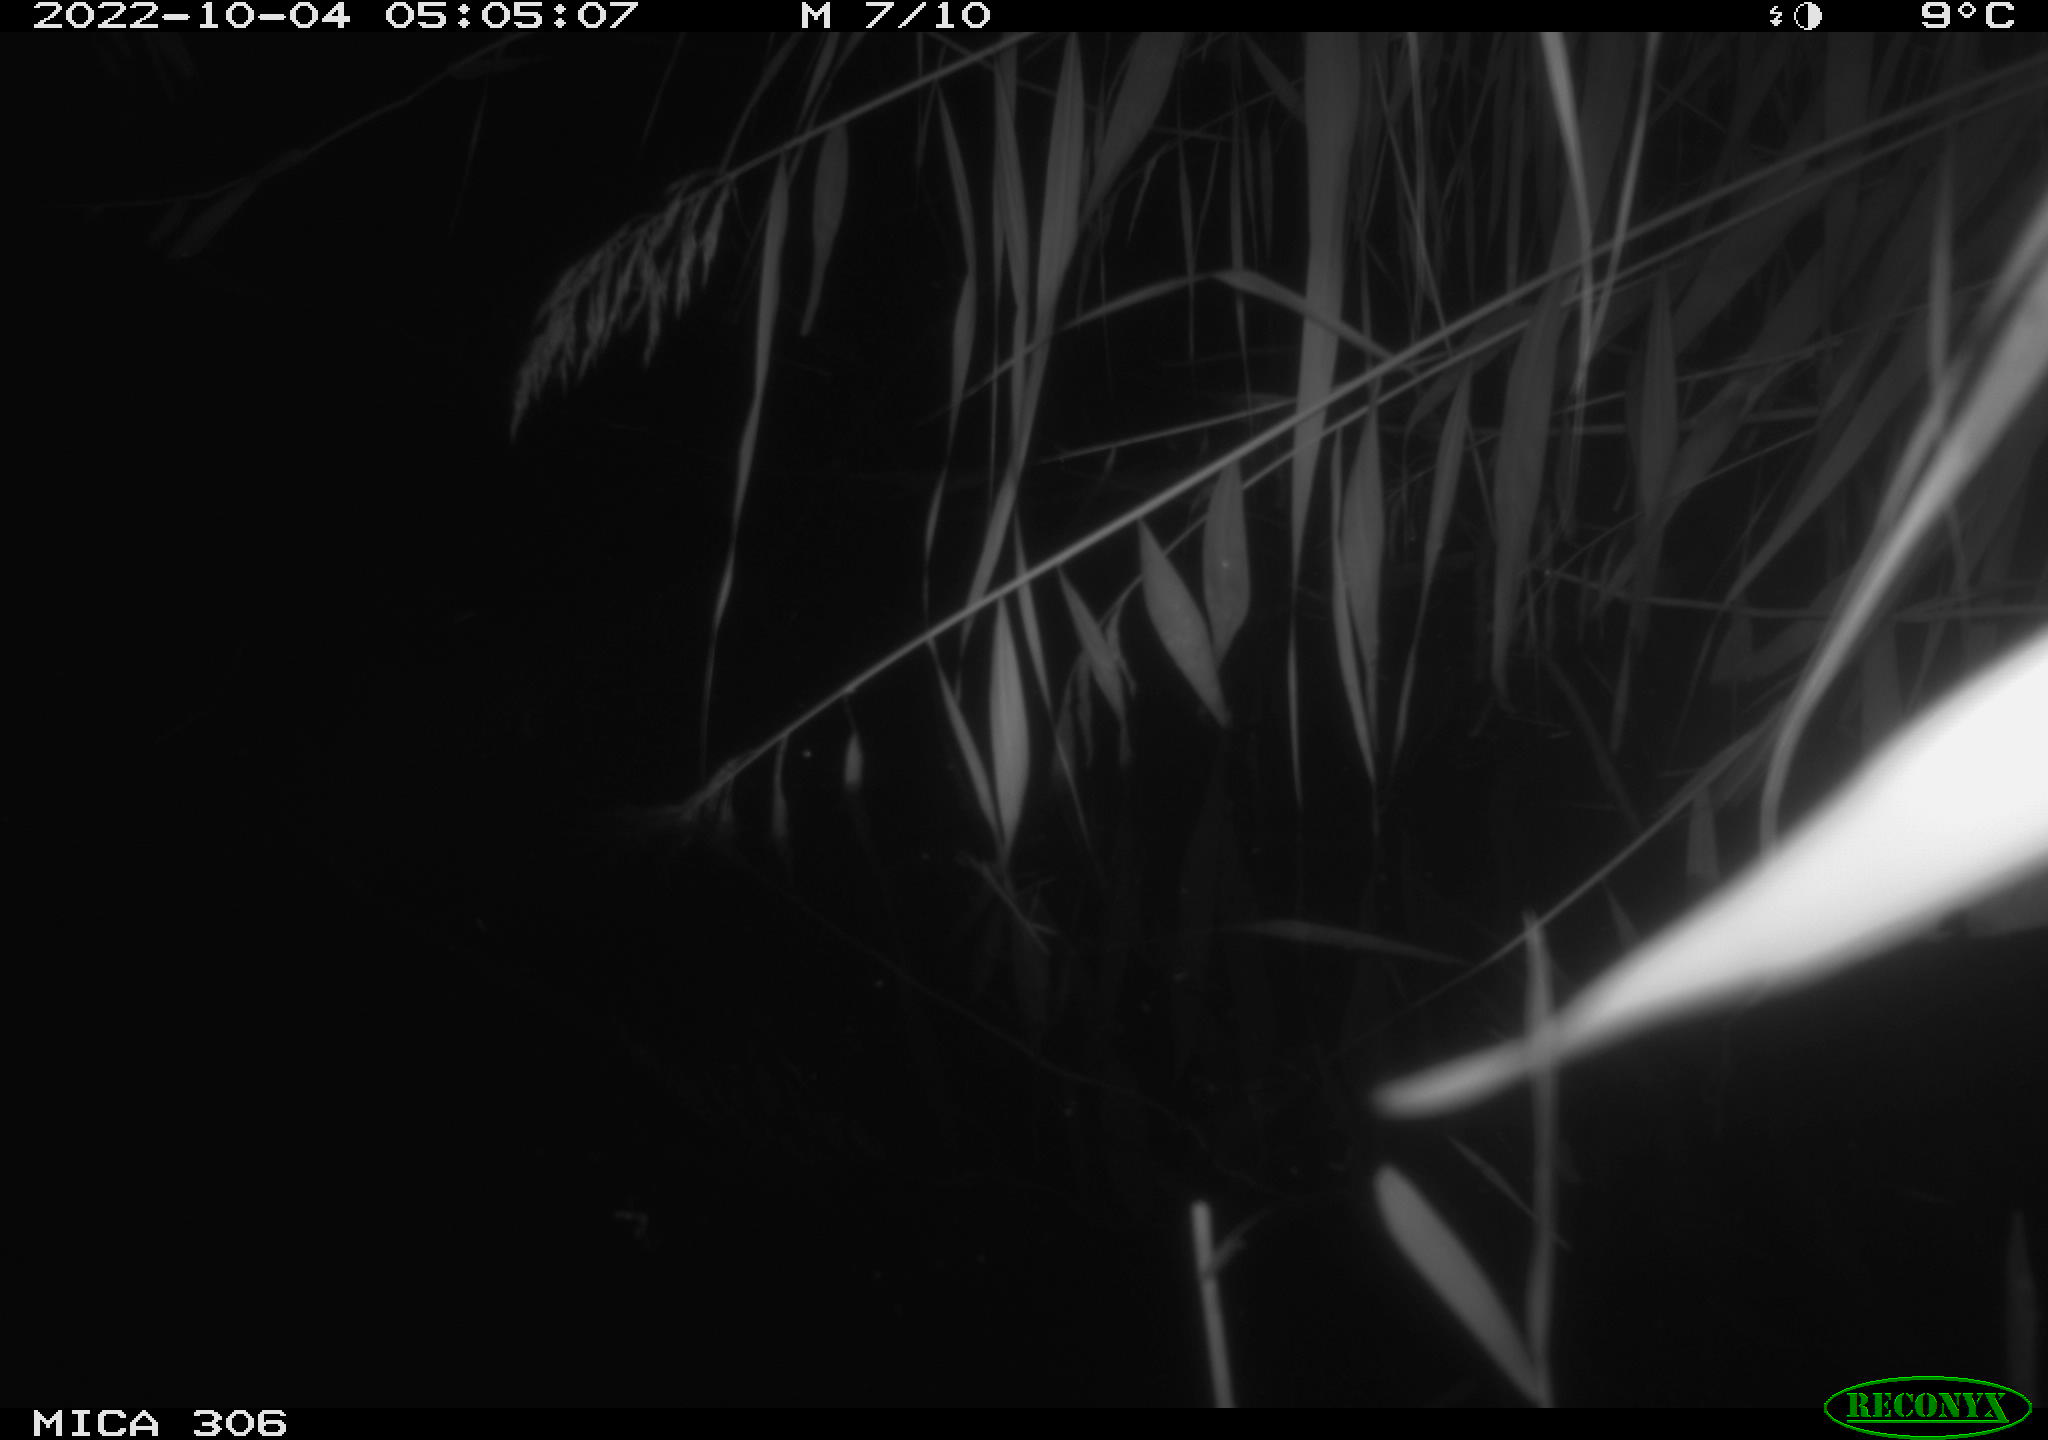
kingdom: Animalia
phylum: Chordata
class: Mammalia
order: Rodentia
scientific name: Rodentia
